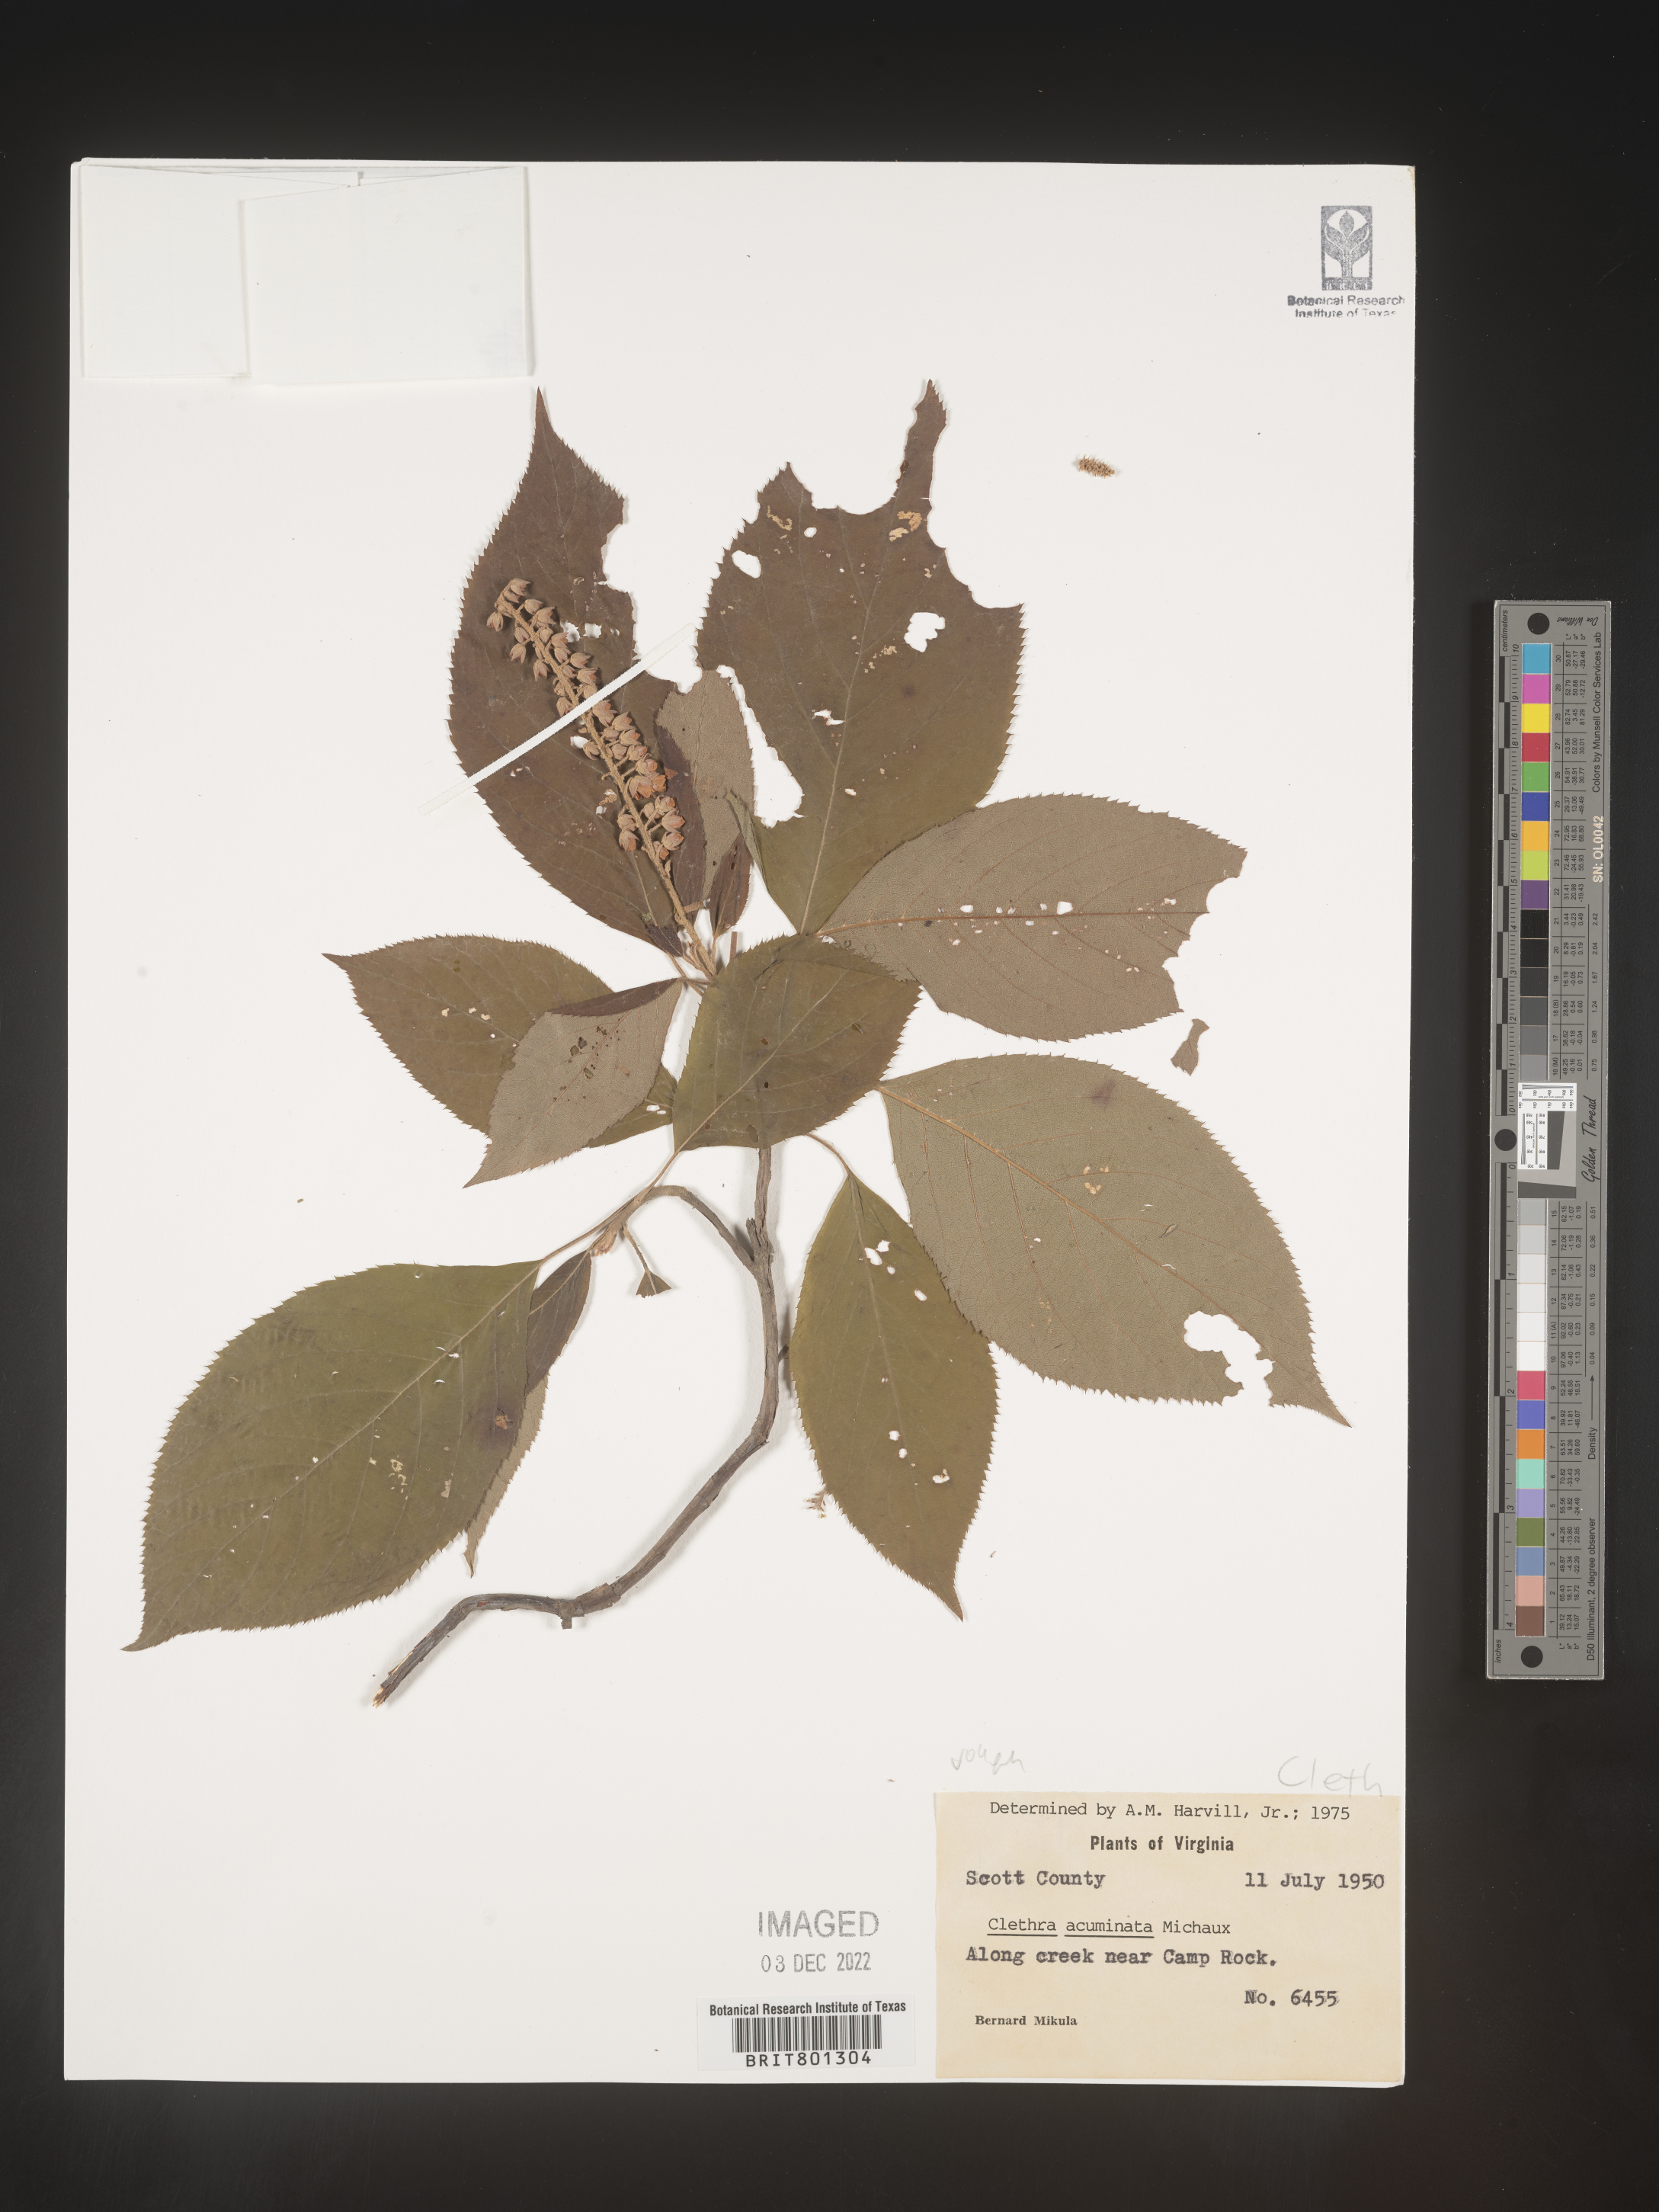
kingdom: Plantae
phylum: Tracheophyta
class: Magnoliopsida
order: Ericales
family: Clethraceae
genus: Clethra
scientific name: Clethra acuminata
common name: Mountain sweet pepperbush
